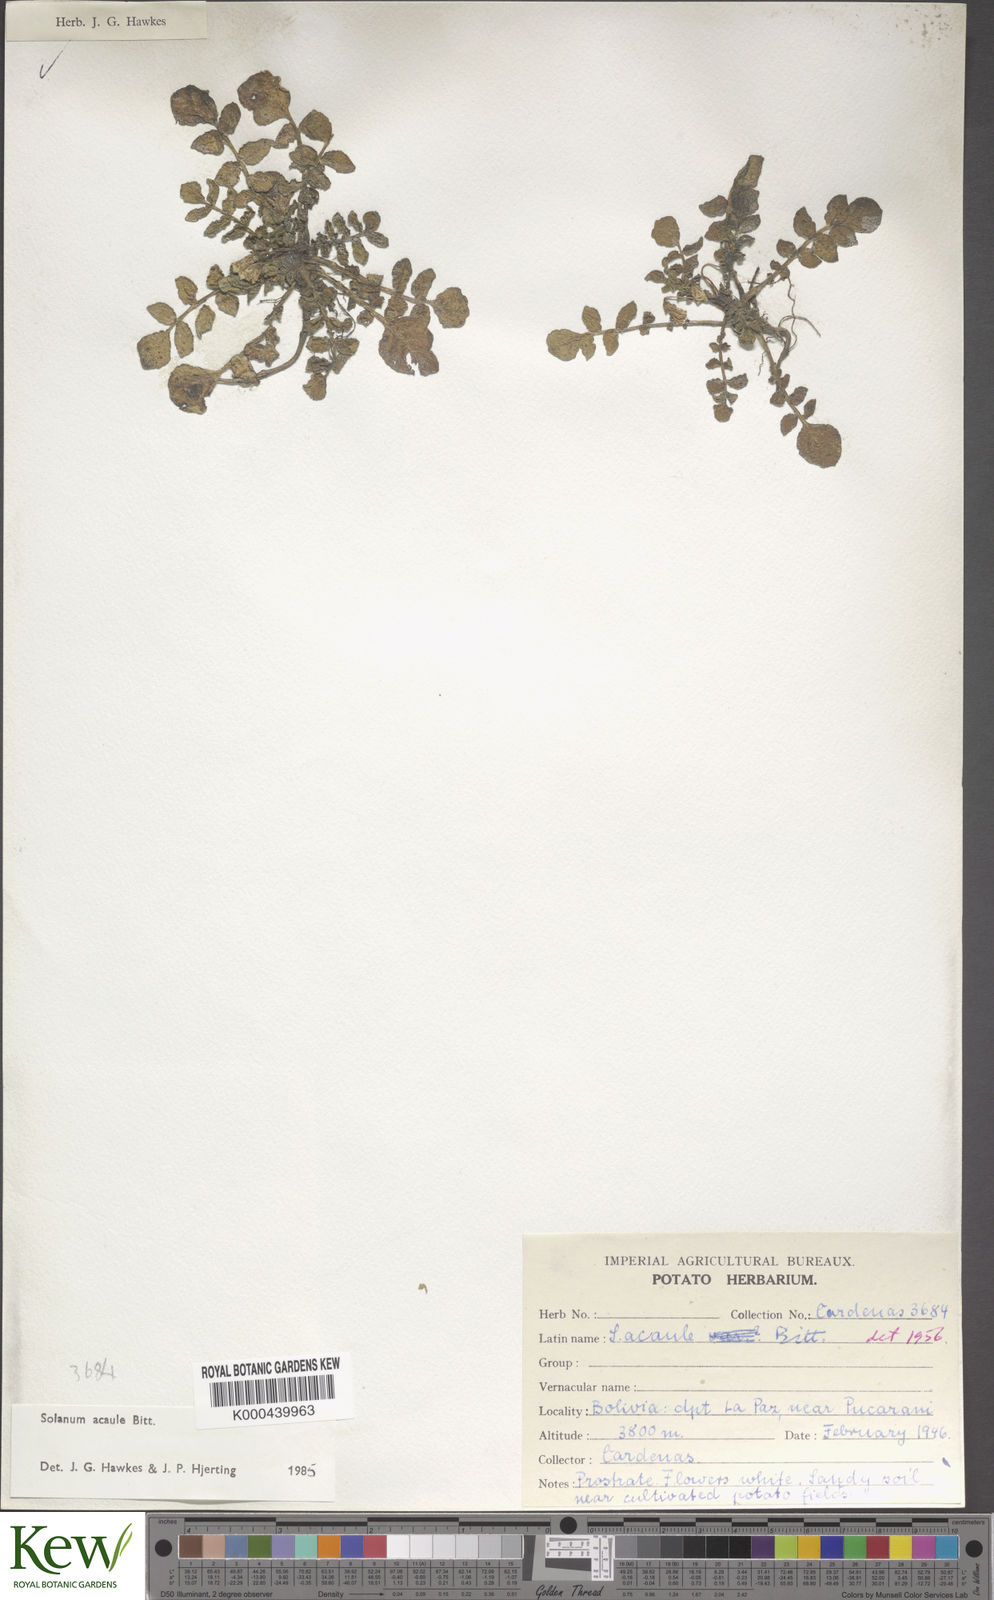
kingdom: Plantae
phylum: Tracheophyta
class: Magnoliopsida
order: Solanales
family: Solanaceae
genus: Solanum
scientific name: Solanum acaule
